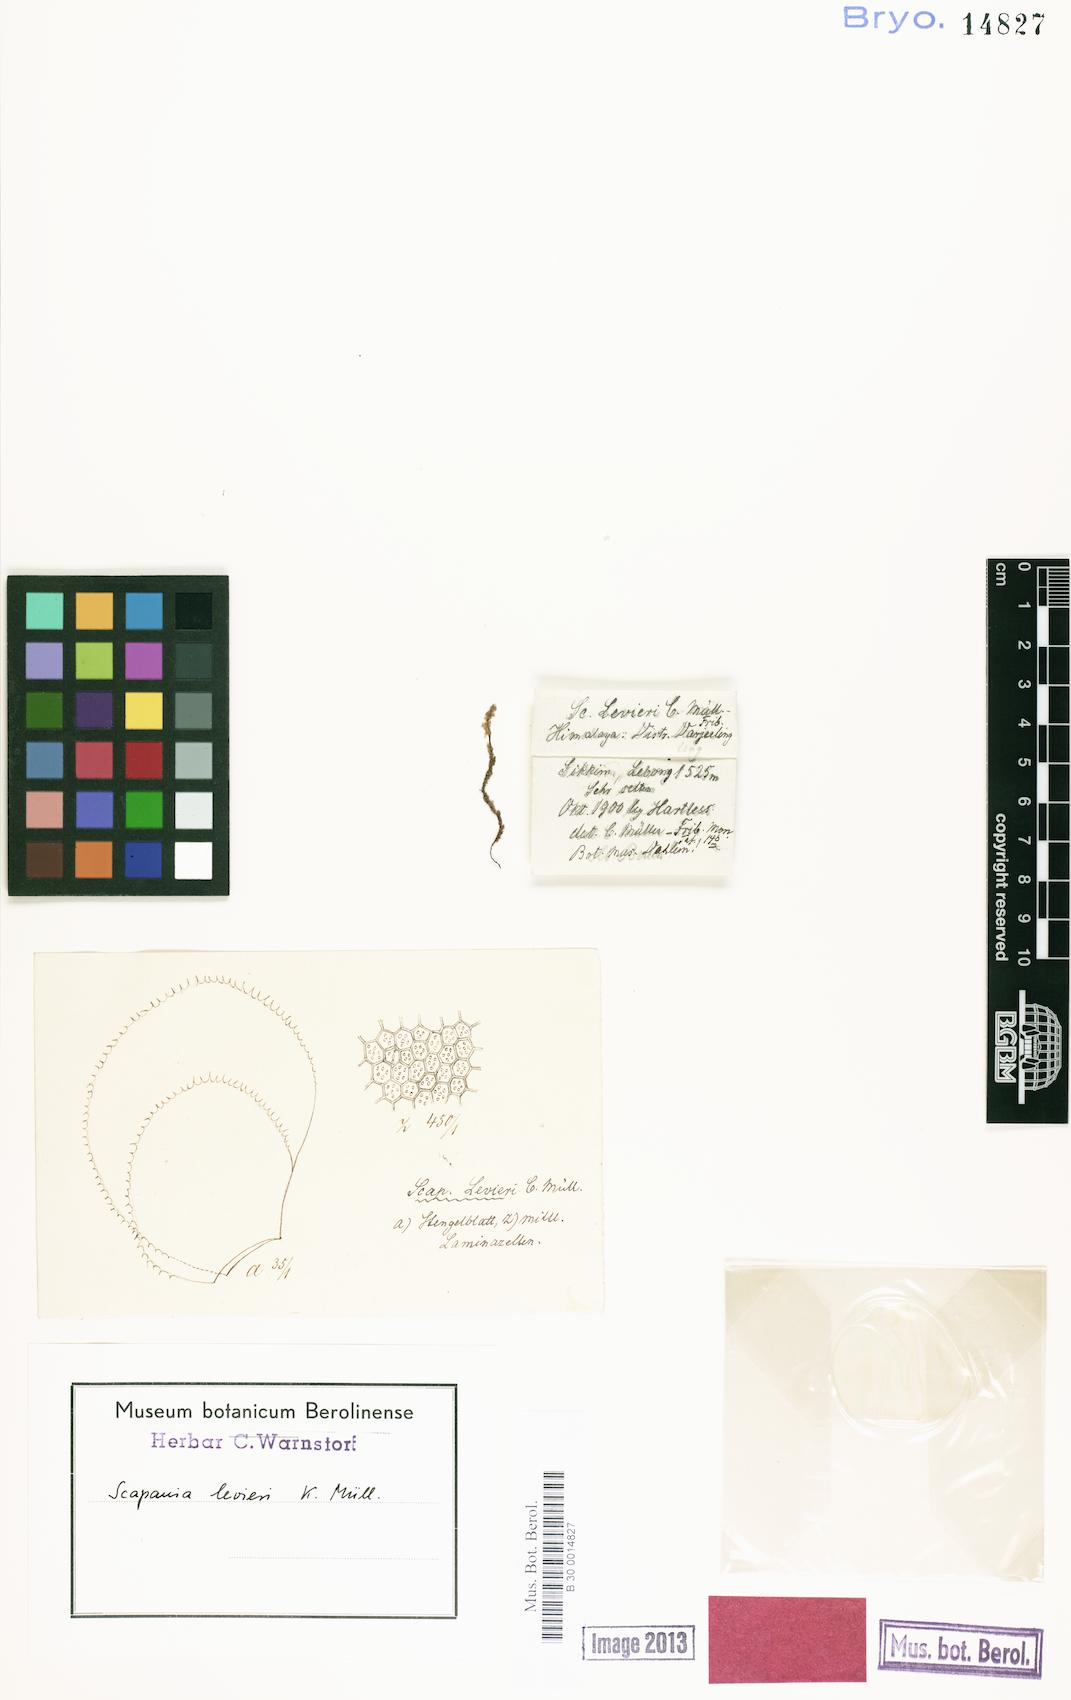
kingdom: Plantae
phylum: Marchantiophyta
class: Jungermanniopsida
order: Jungermanniales
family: Scapaniaceae
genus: Scapania
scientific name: Scapania levieri
